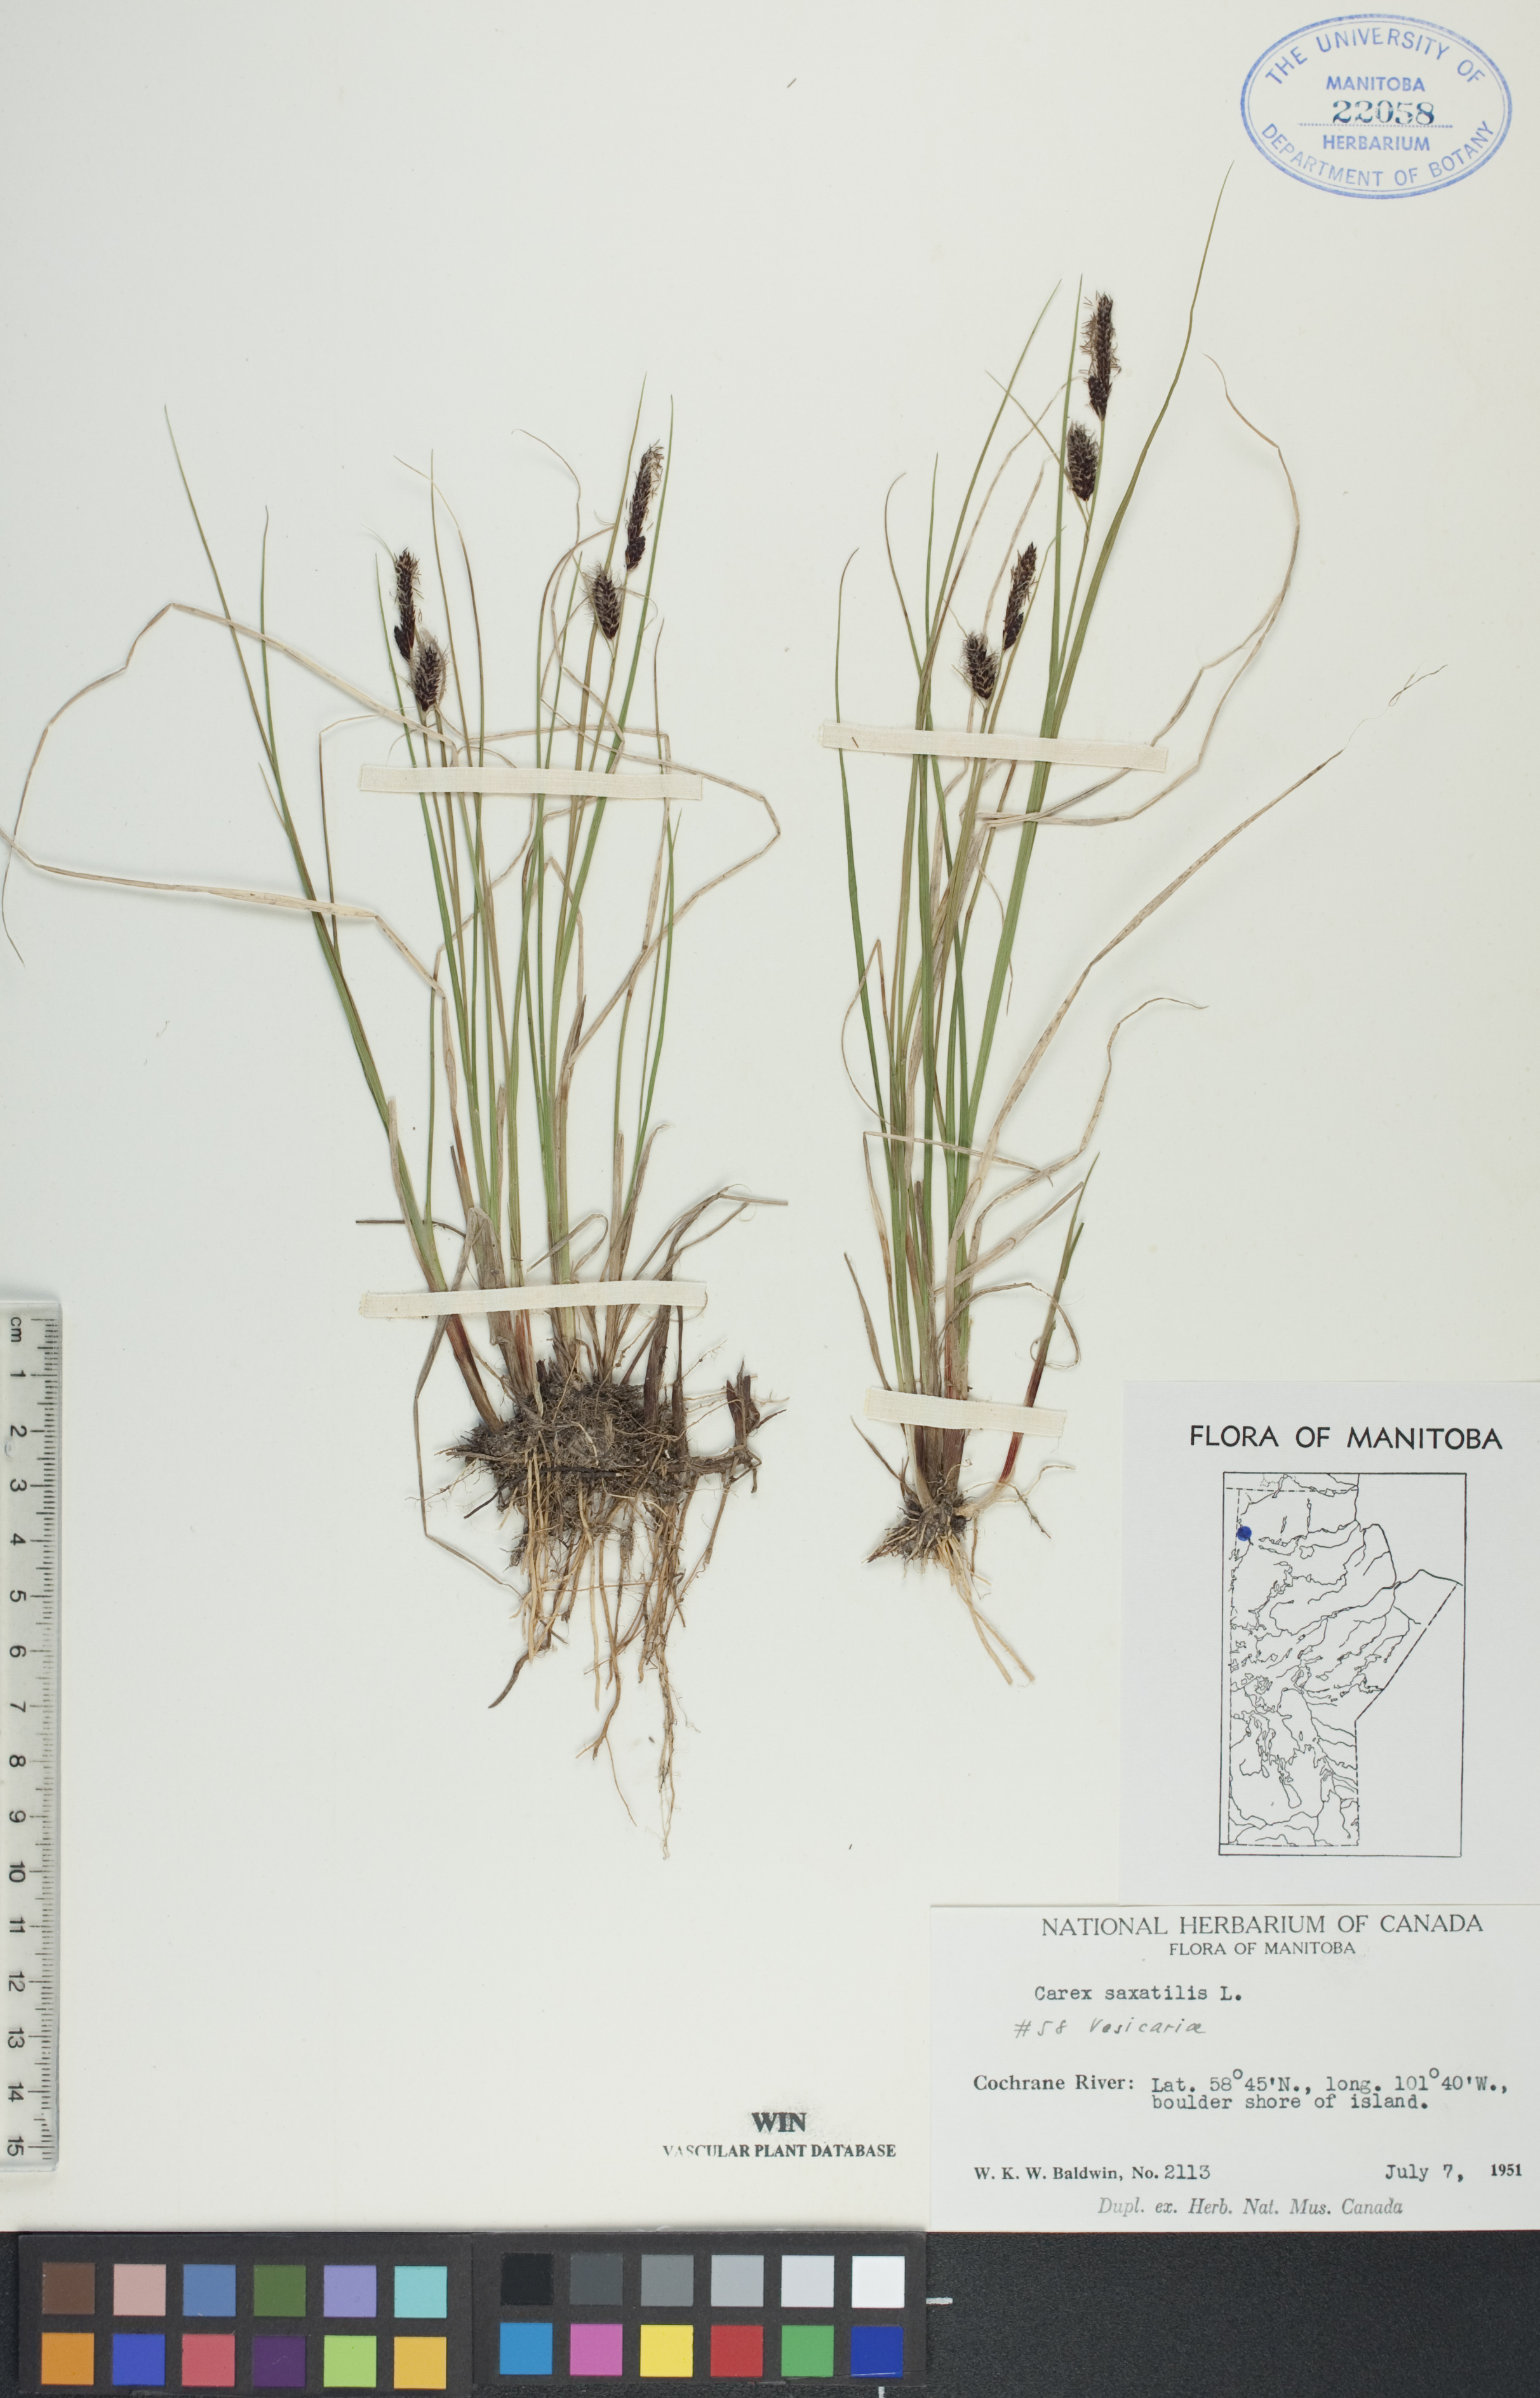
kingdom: Plantae
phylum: Tracheophyta
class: Liliopsida
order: Poales
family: Cyperaceae
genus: Carex
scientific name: Carex saxatilis
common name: Russet sedge
